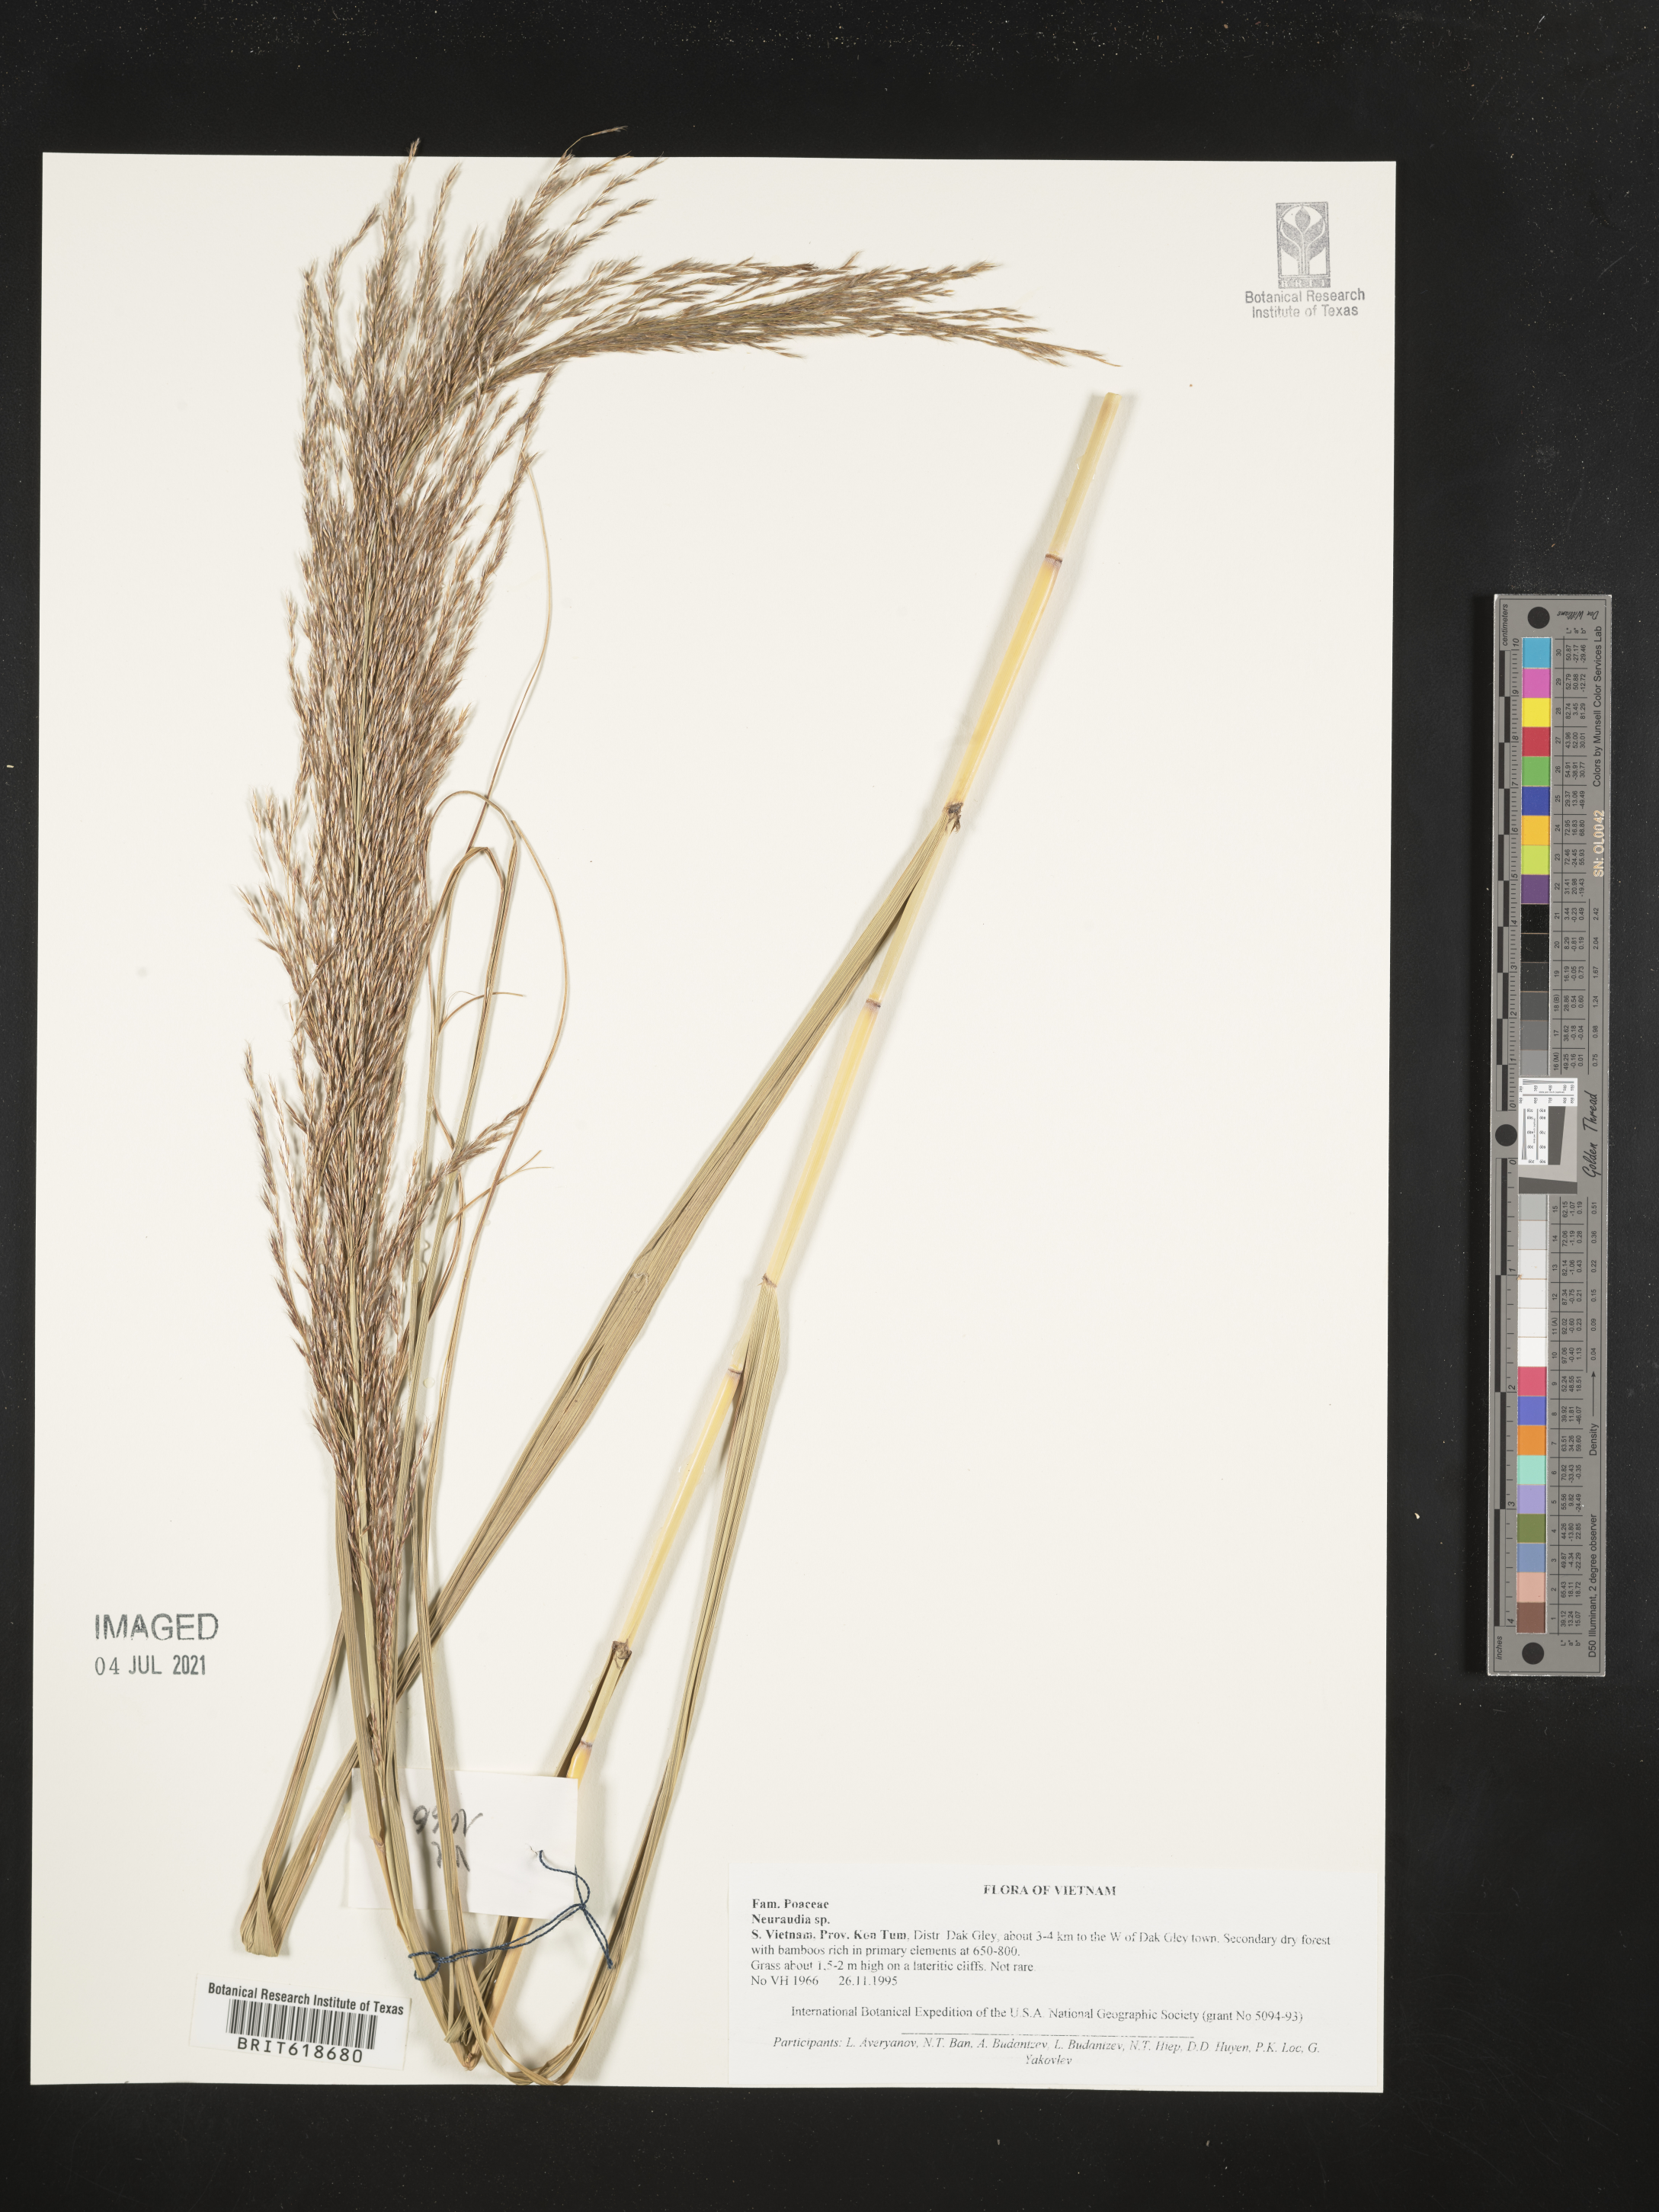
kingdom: Plantae
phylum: Tracheophyta
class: Magnoliopsida
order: Rosales
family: Urticaceae
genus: Neraudia
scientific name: Neraudia
